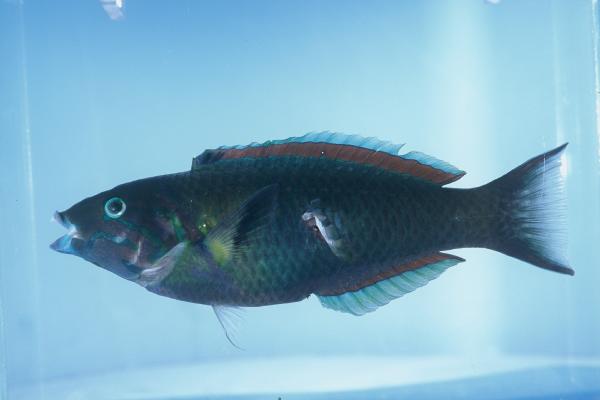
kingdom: Animalia
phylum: Chordata
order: Perciformes
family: Labridae
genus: Thalassoma
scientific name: Thalassoma genivittatum
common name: Red-cheek wrasse
